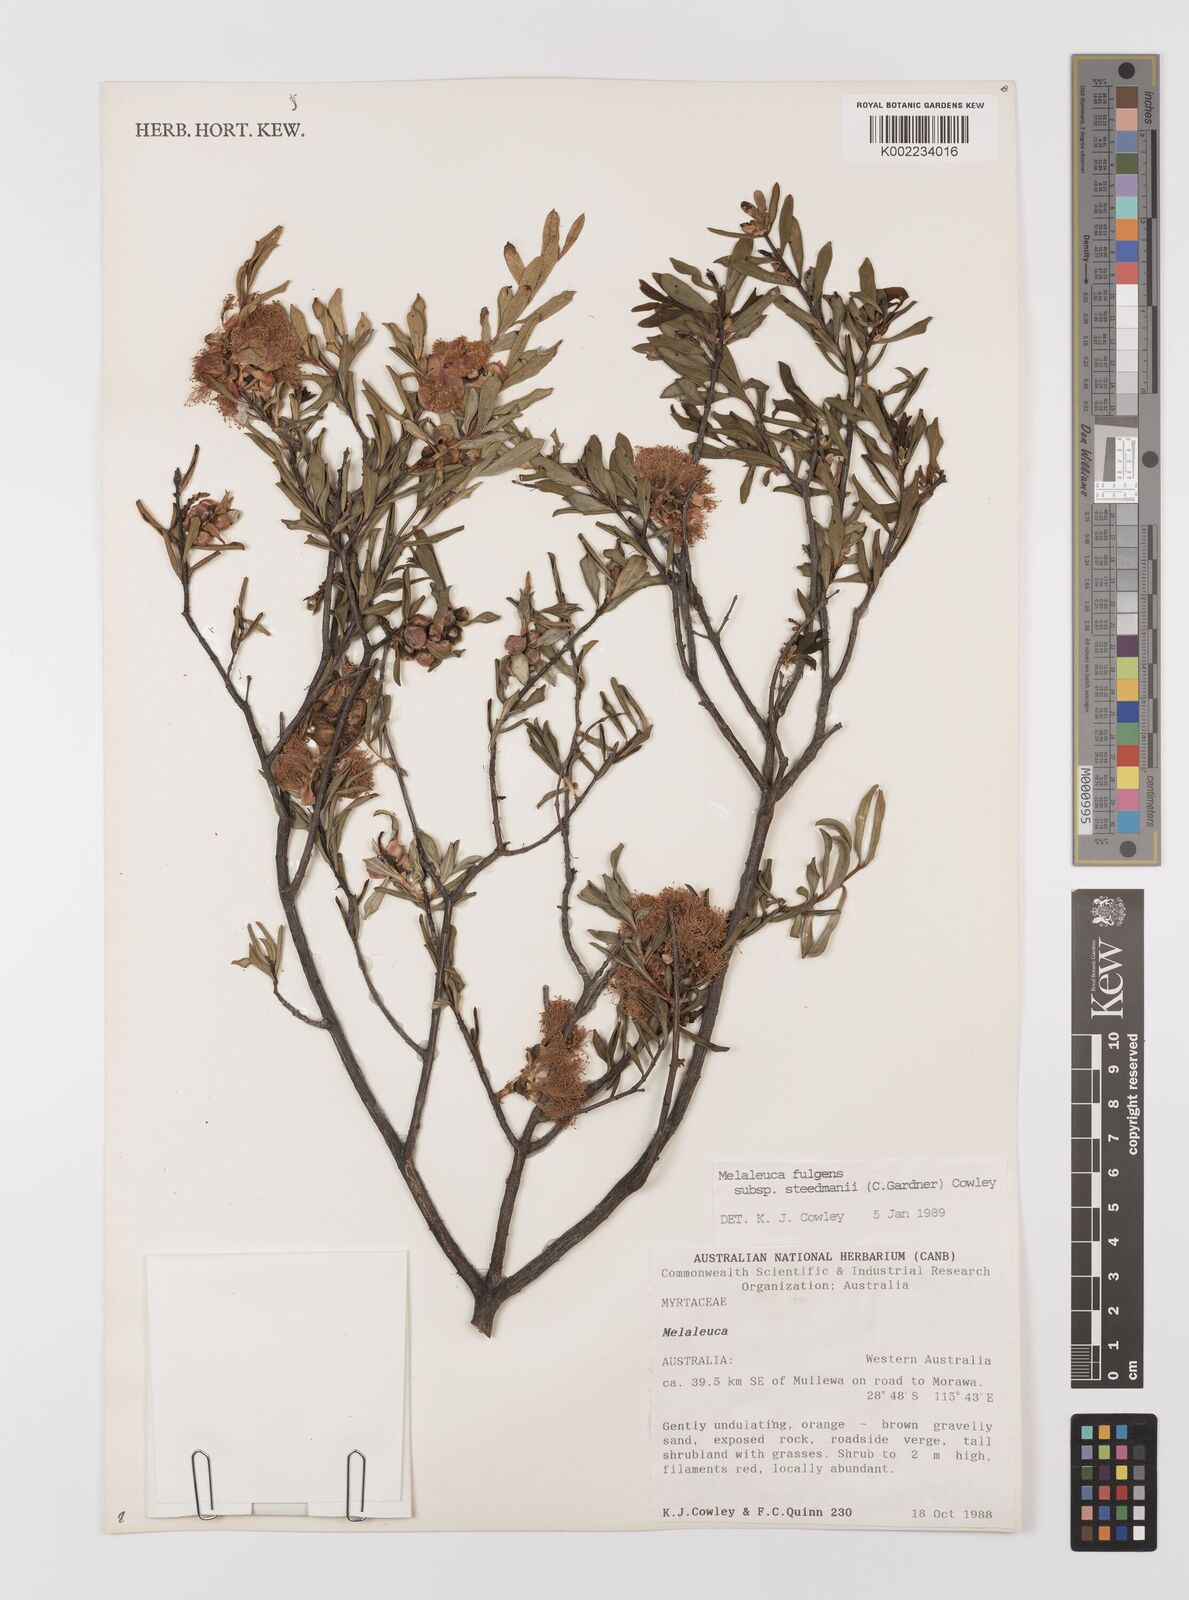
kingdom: Plantae
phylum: Tracheophyta
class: Magnoliopsida
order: Myrtales
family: Myrtaceae
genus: Melaleuca
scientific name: Melaleuca fulgens
